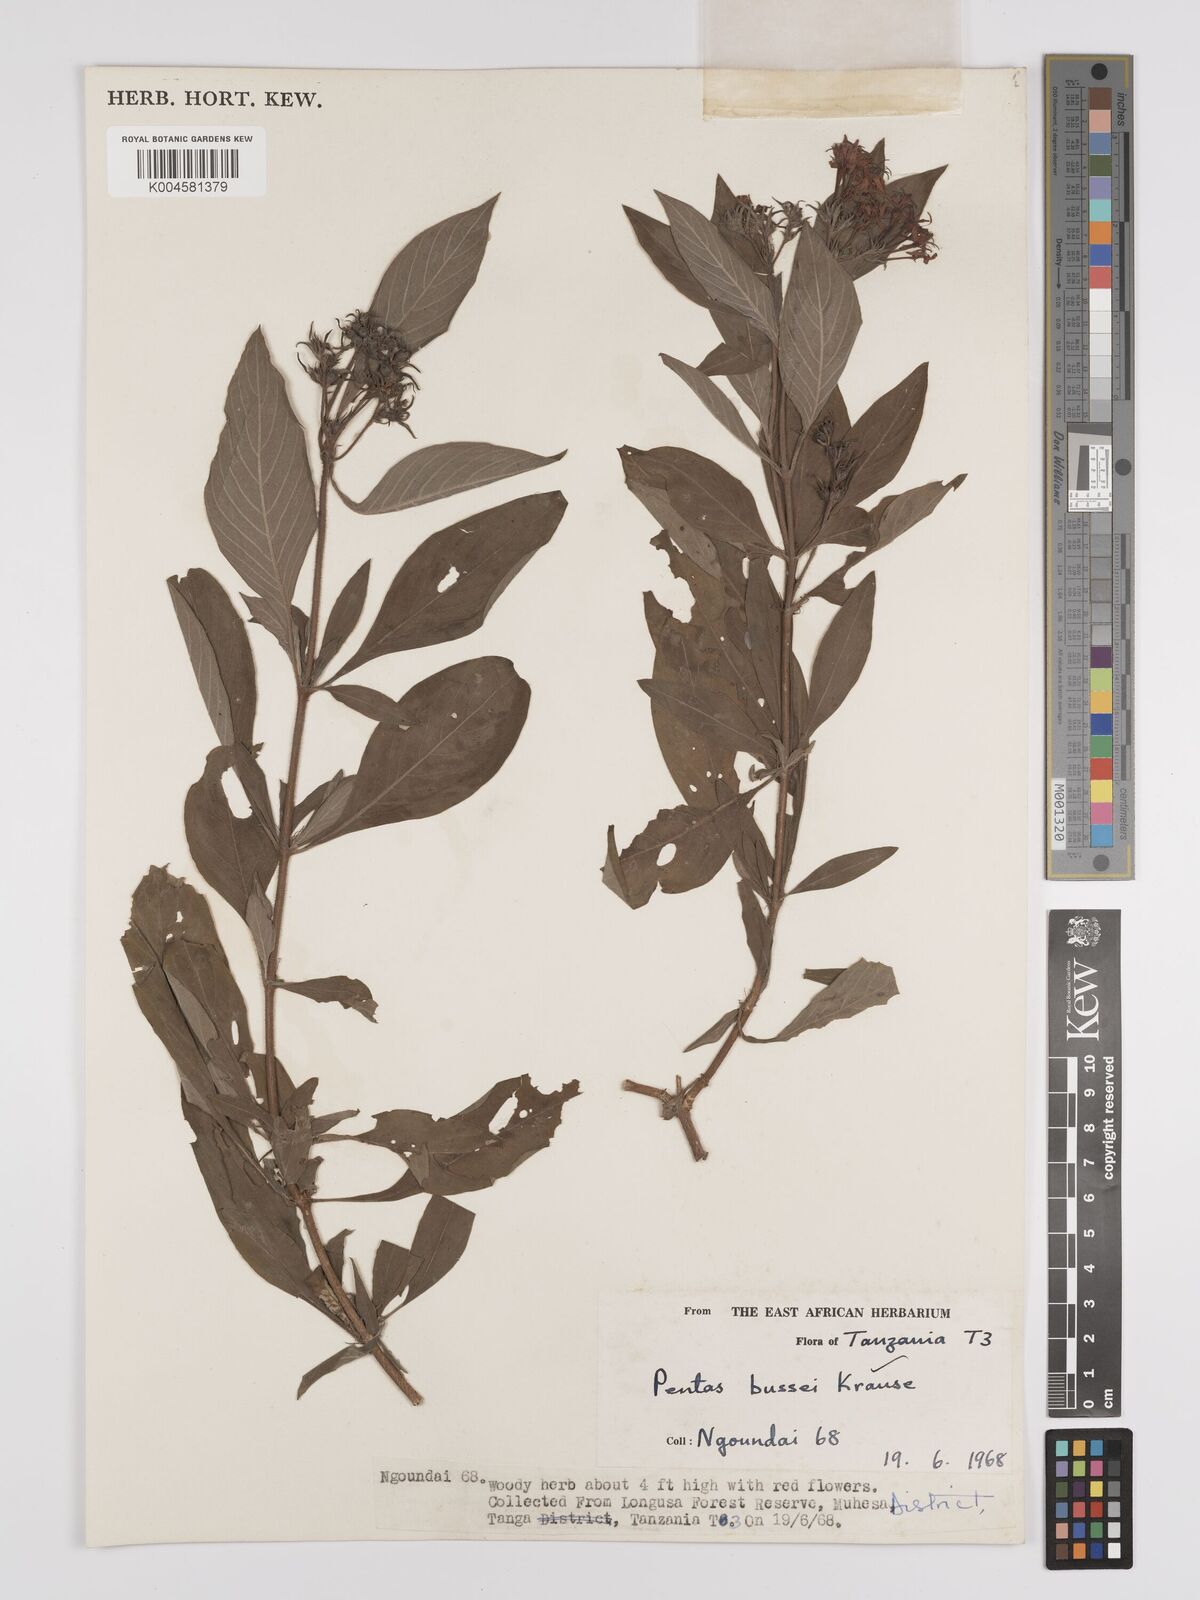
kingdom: Plantae
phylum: Tracheophyta
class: Magnoliopsida
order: Gentianales
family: Rubiaceae
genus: Rhodopentas
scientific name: Rhodopentas bussei
